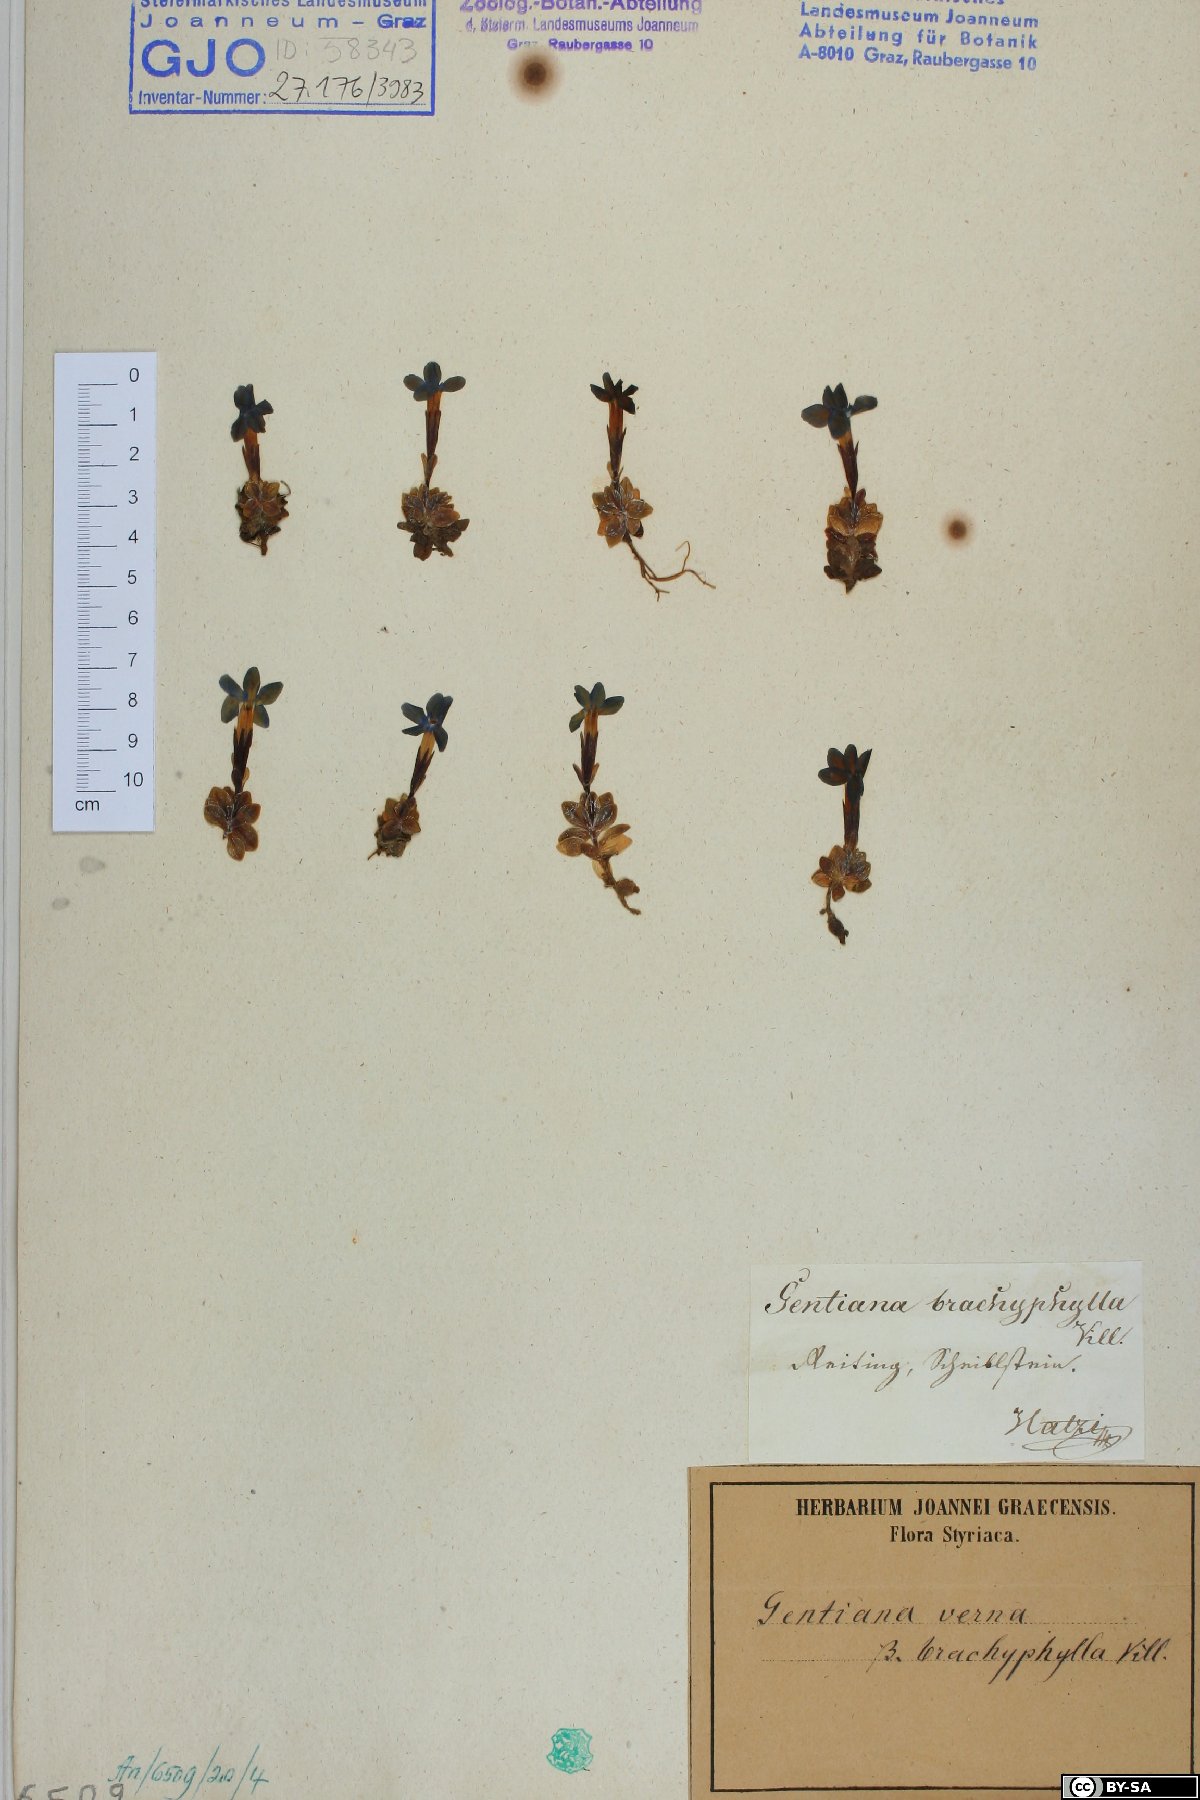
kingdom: Plantae
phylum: Tracheophyta
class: Magnoliopsida
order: Gentianales
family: Gentianaceae
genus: Gentiana
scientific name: Gentiana brachyphylla
